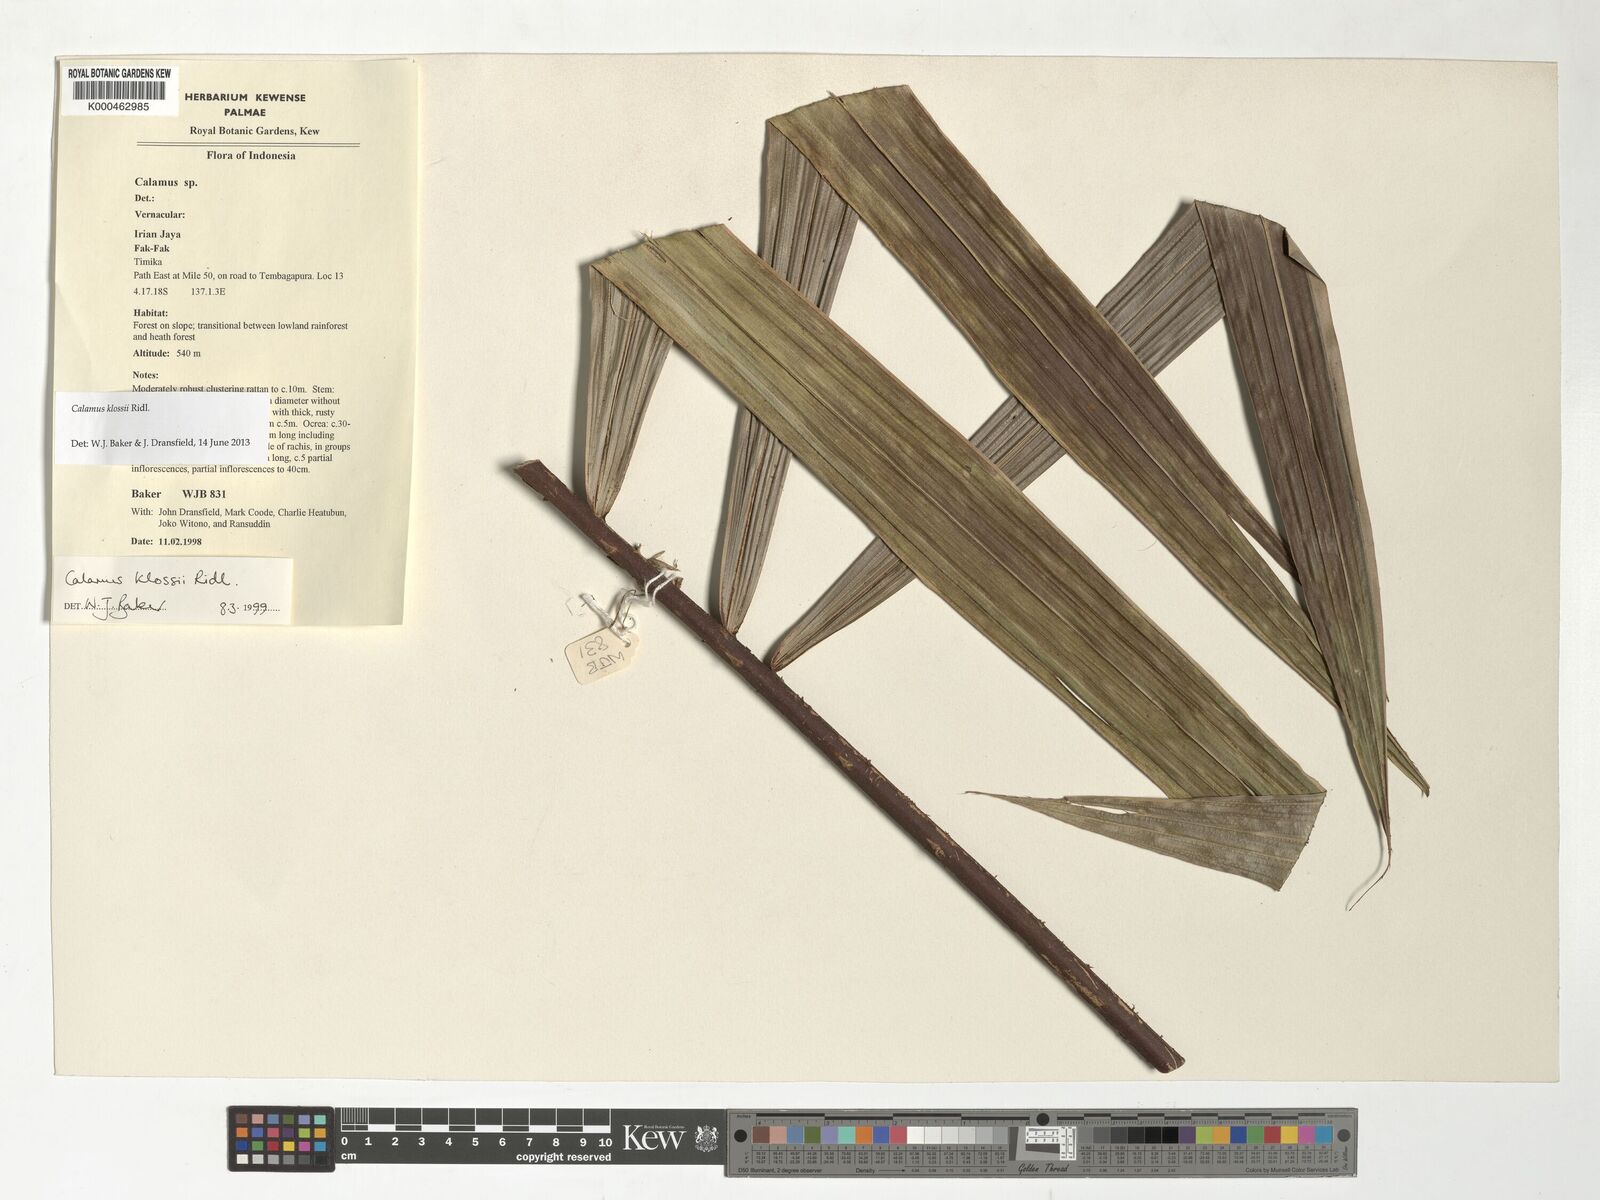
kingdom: Plantae
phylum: Tracheophyta
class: Liliopsida
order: Arecales
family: Arecaceae
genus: Calamus
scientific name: Calamus klossii
